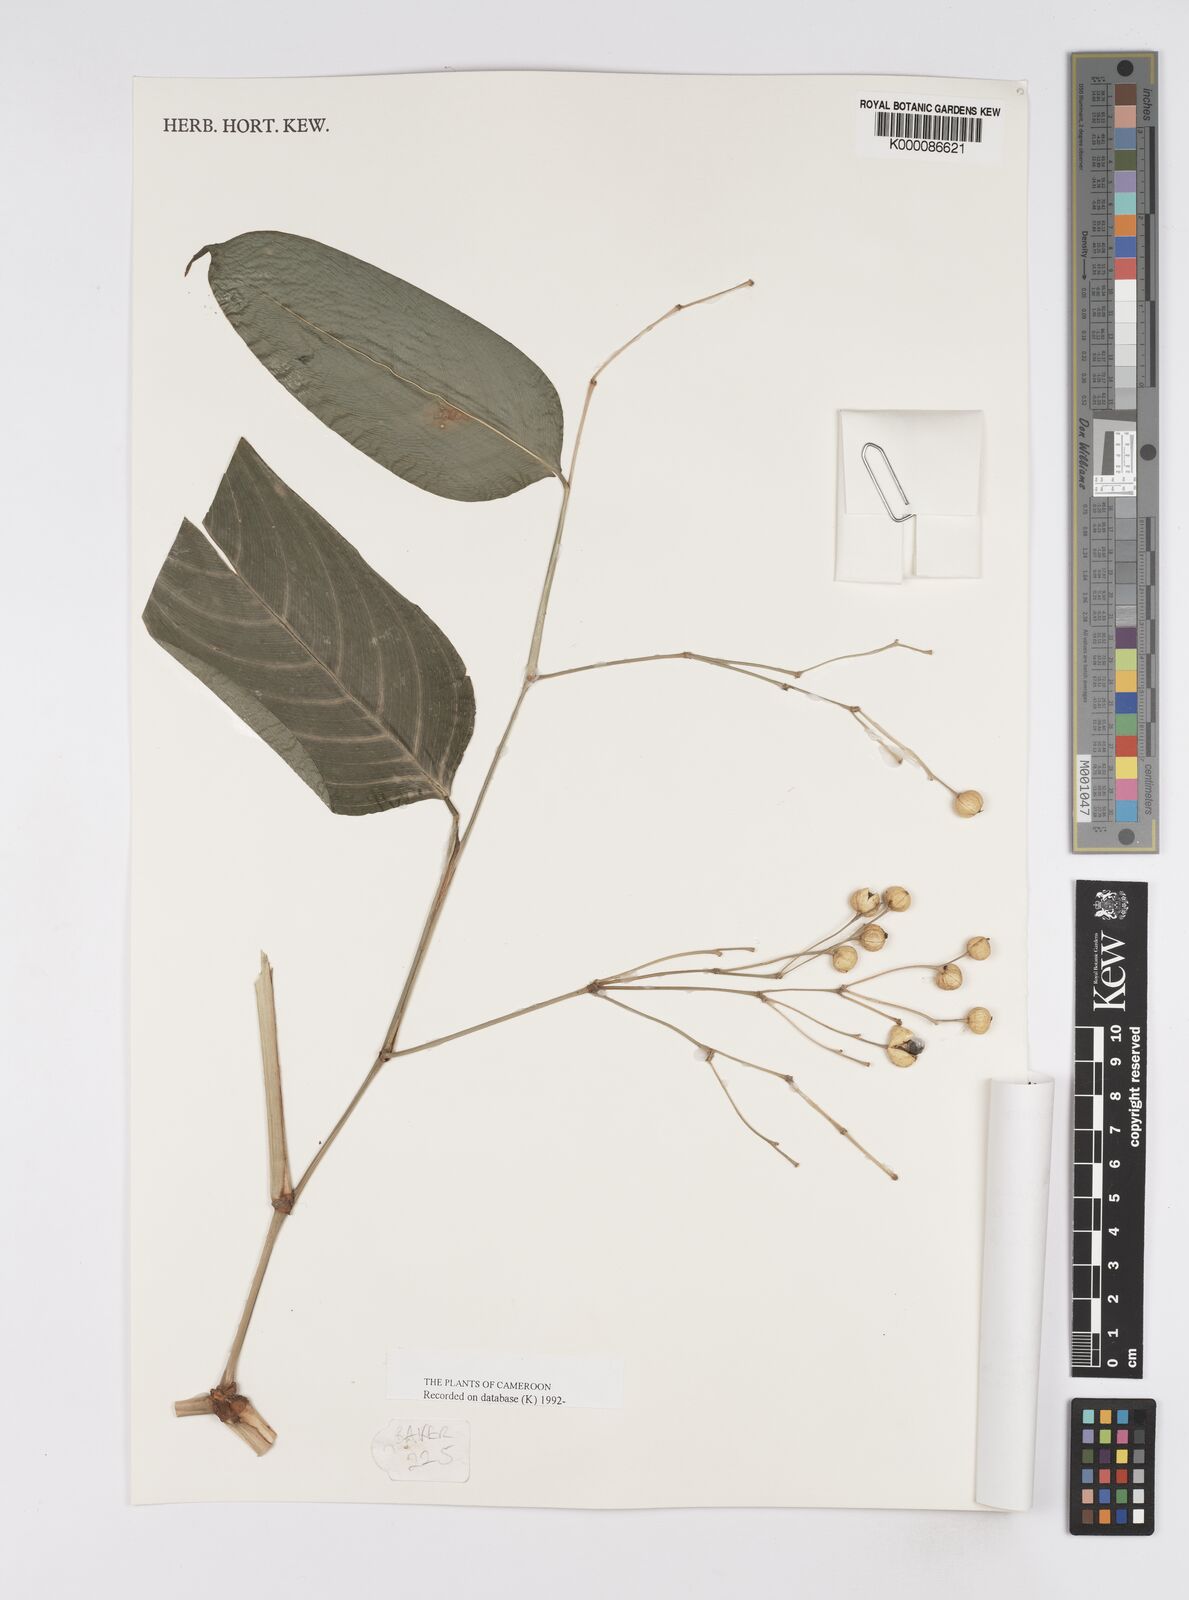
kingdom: Plantae
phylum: Tracheophyta
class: Liliopsida
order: Zingiberales
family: Marantaceae
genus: Marantochloa
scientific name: Marantochloa leucantha
